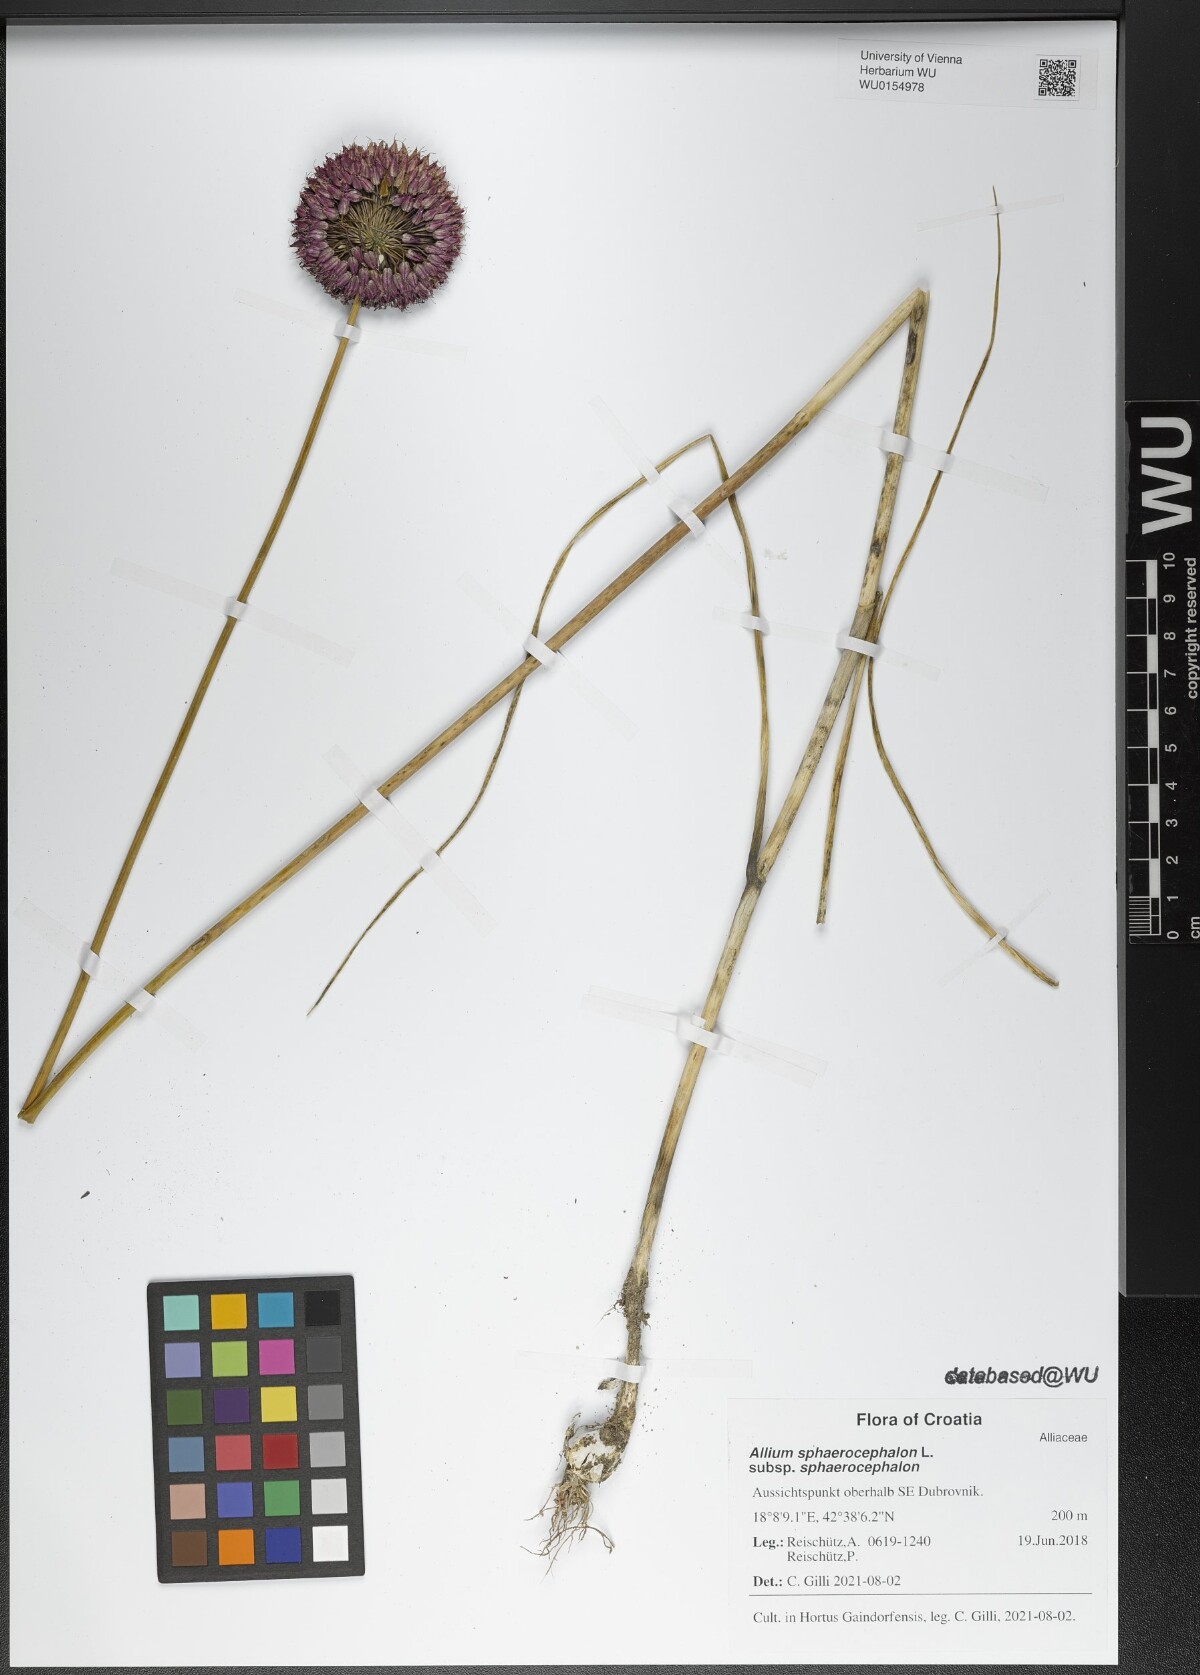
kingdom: Plantae
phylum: Tracheophyta
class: Liliopsida
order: Asparagales
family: Amaryllidaceae
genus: Allium
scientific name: Allium sphaerocephalon
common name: Round-headed leek
